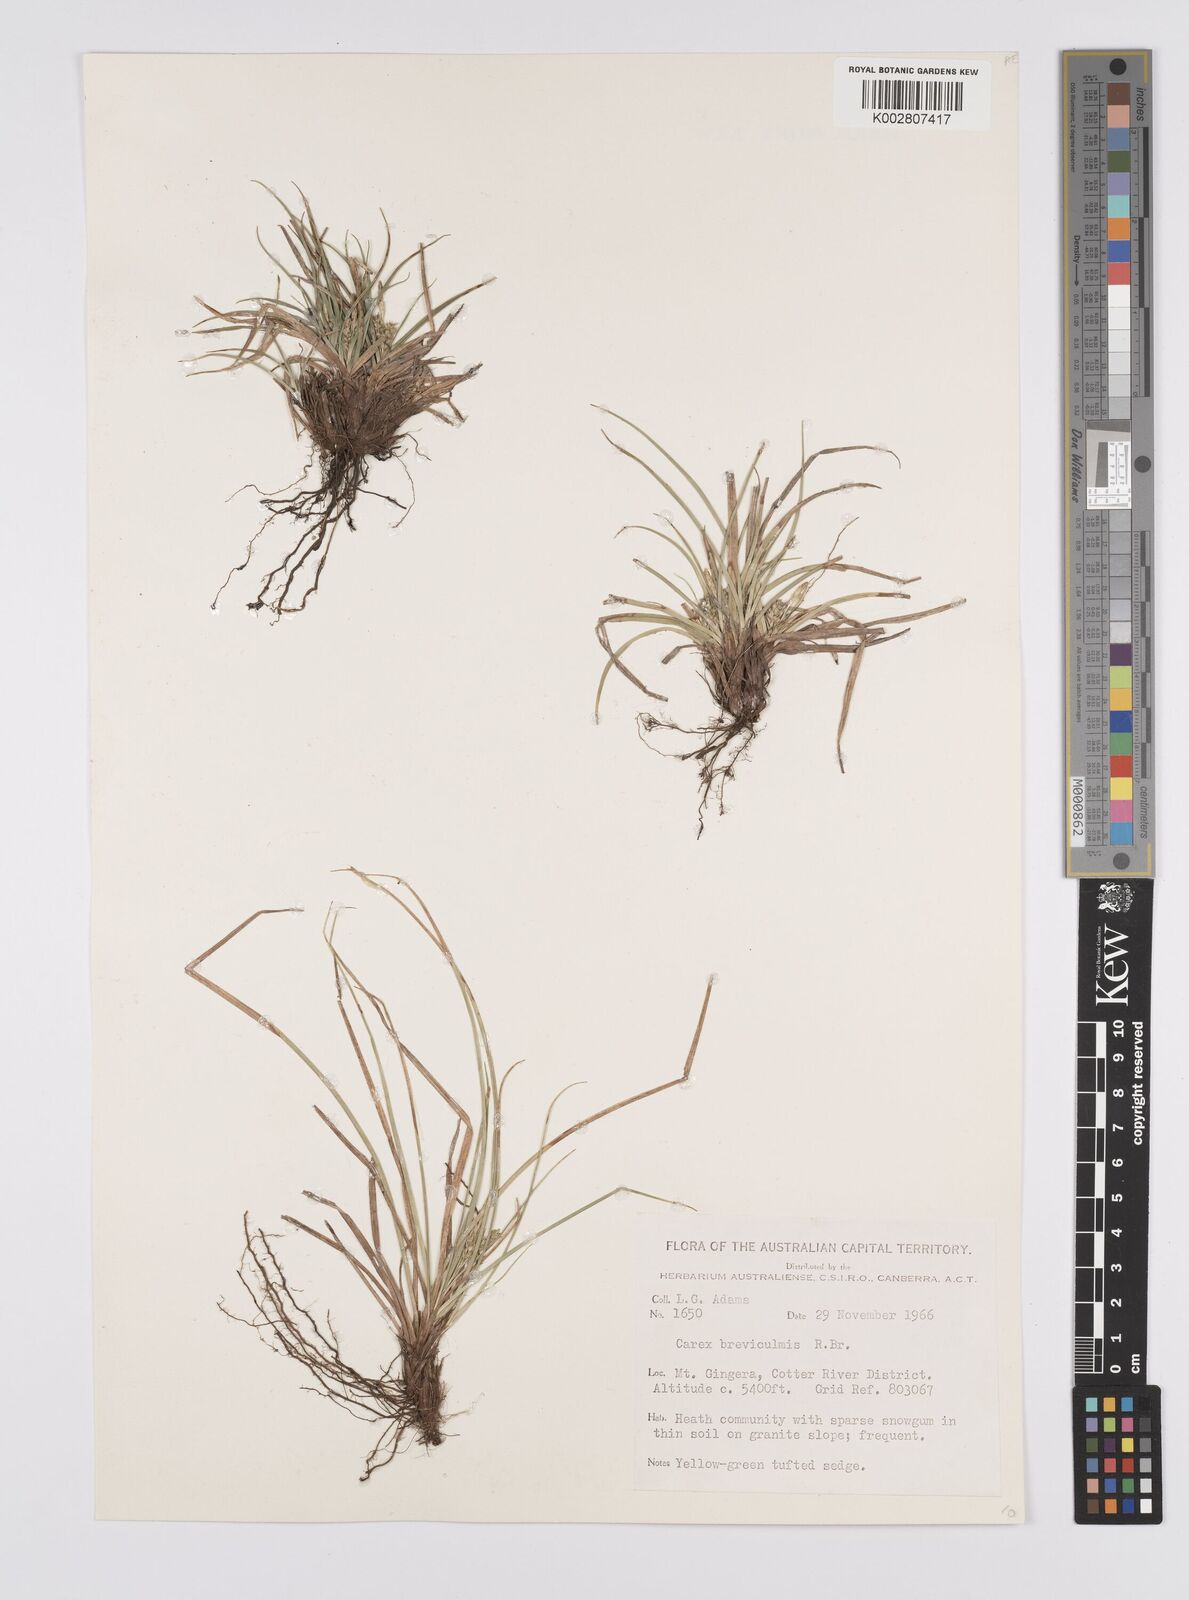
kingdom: Plantae
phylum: Tracheophyta
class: Liliopsida
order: Poales
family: Cyperaceae
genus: Carex
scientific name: Carex breviculmis
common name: Asian shortstem sedge
